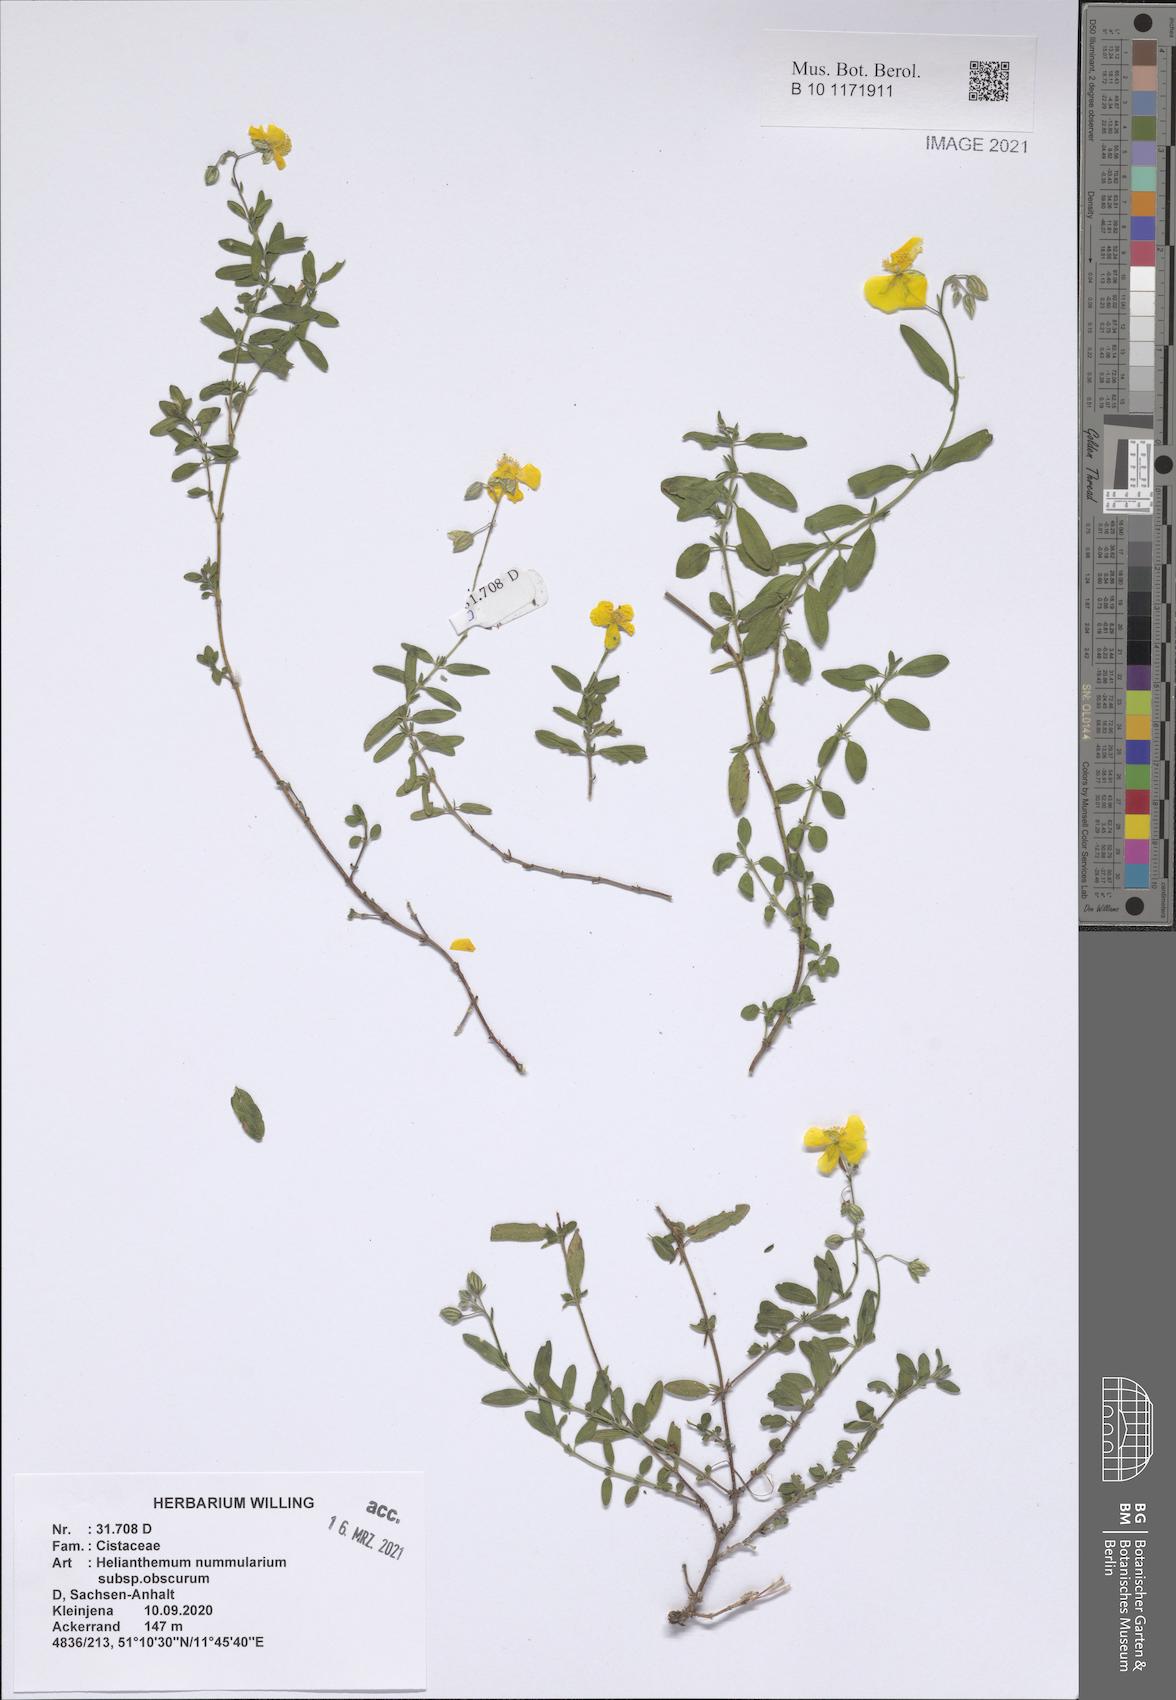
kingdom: Plantae
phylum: Tracheophyta
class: Magnoliopsida
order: Malvales
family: Cistaceae
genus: Helianthemum
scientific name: Helianthemum nummularium
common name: Common rock-rose
